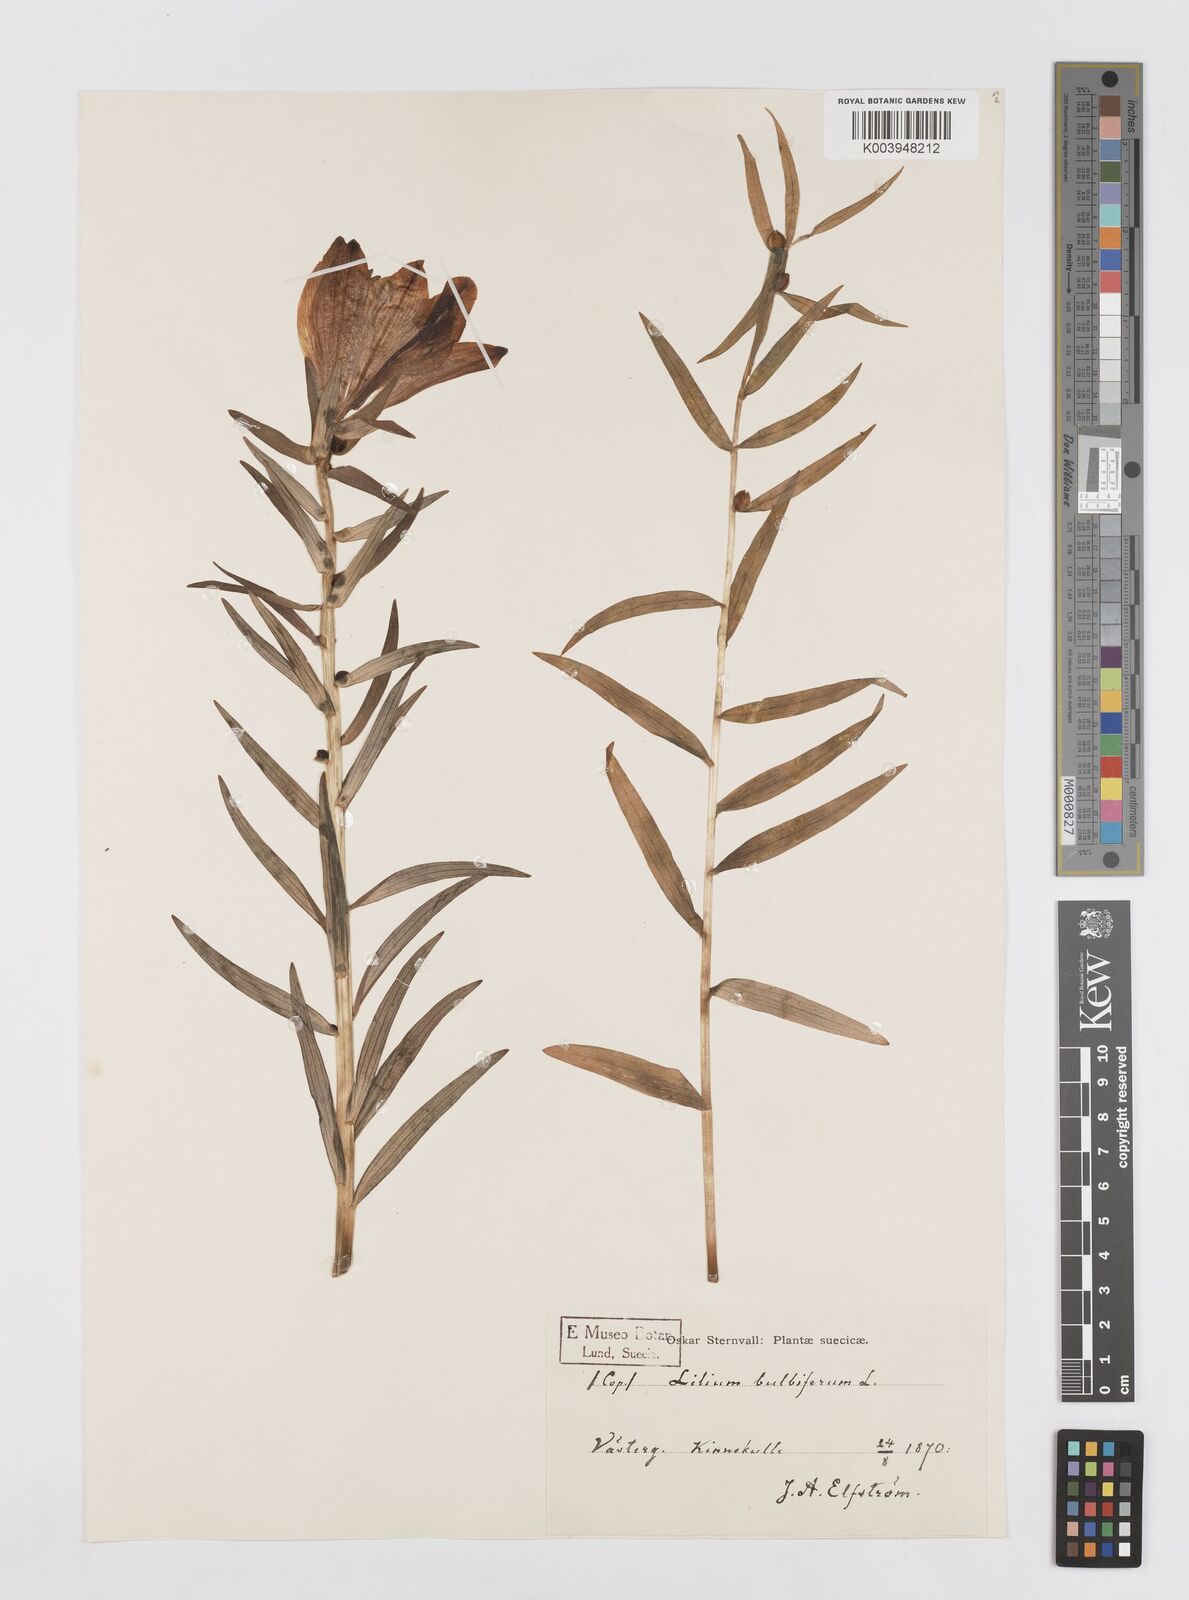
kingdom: Plantae
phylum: Tracheophyta
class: Liliopsida
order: Liliales
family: Liliaceae
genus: Lilium
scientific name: Lilium bulbiferum
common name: Orange lily
